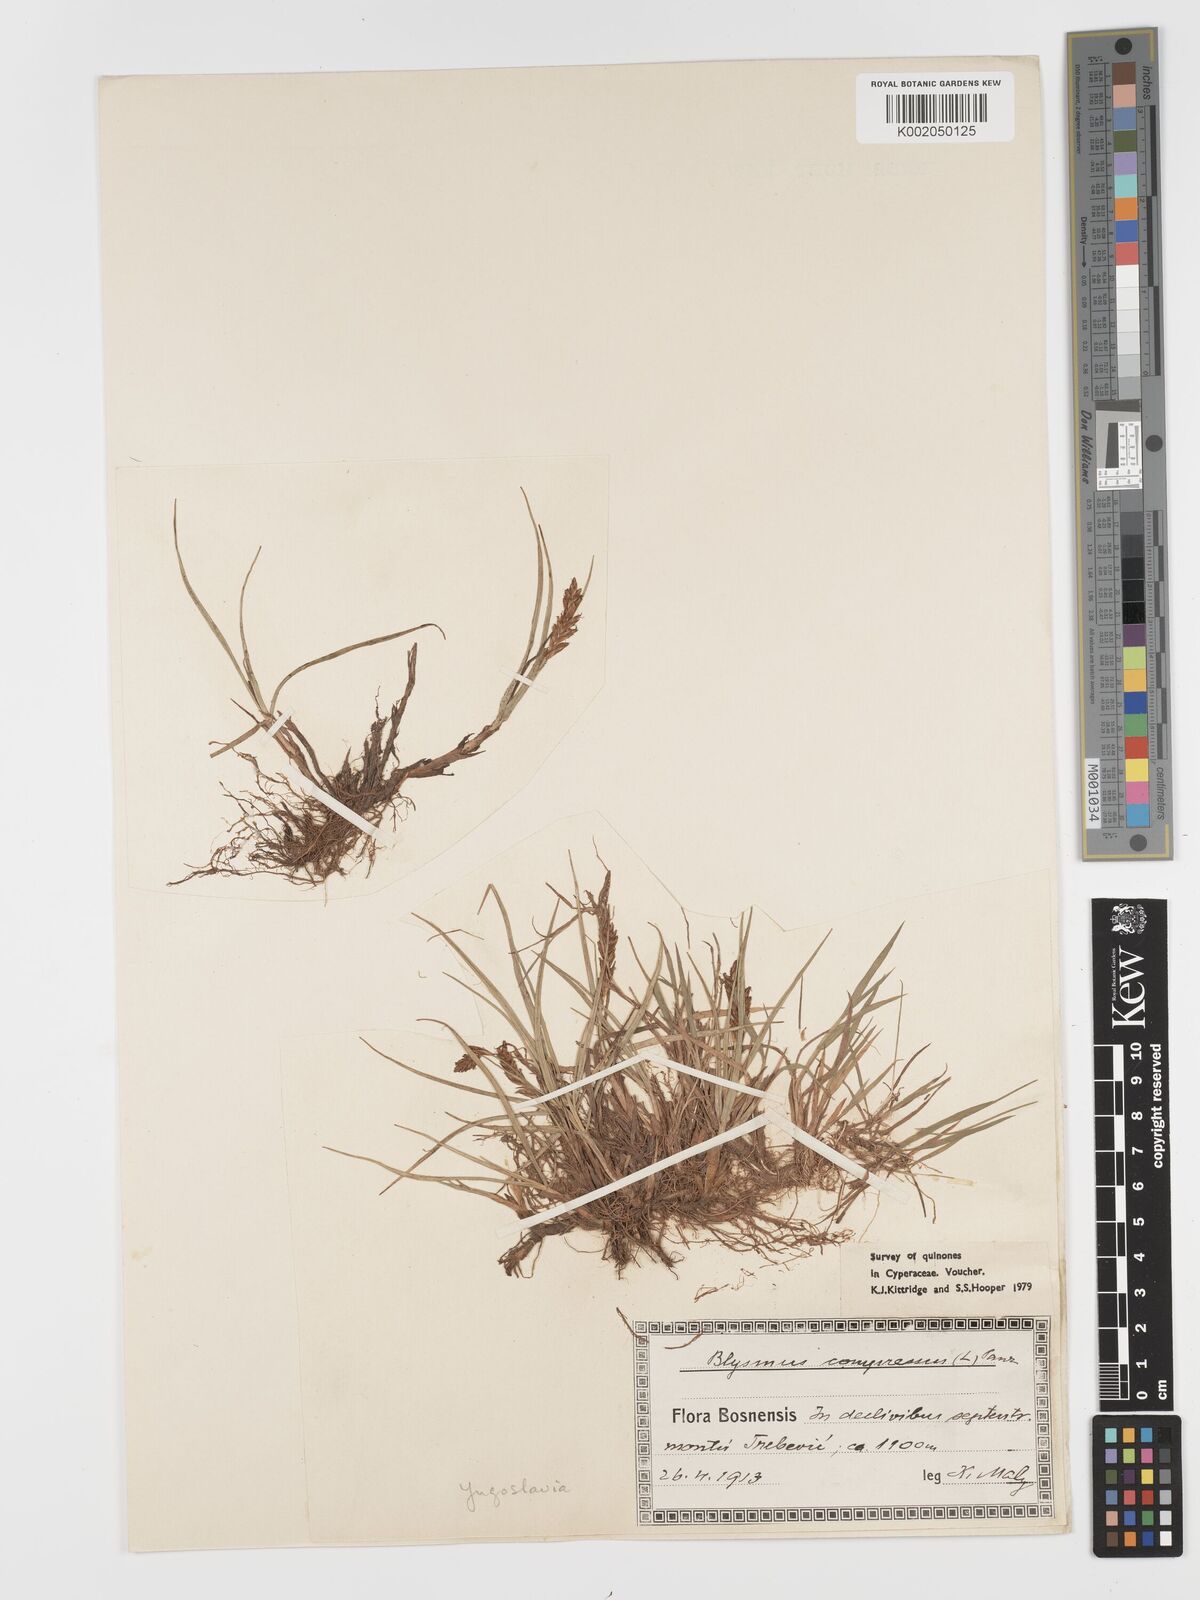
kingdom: Plantae
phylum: Tracheophyta
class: Liliopsida
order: Poales
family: Cyperaceae
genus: Blysmus
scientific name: Blysmus compressus
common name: Flat-sedge
